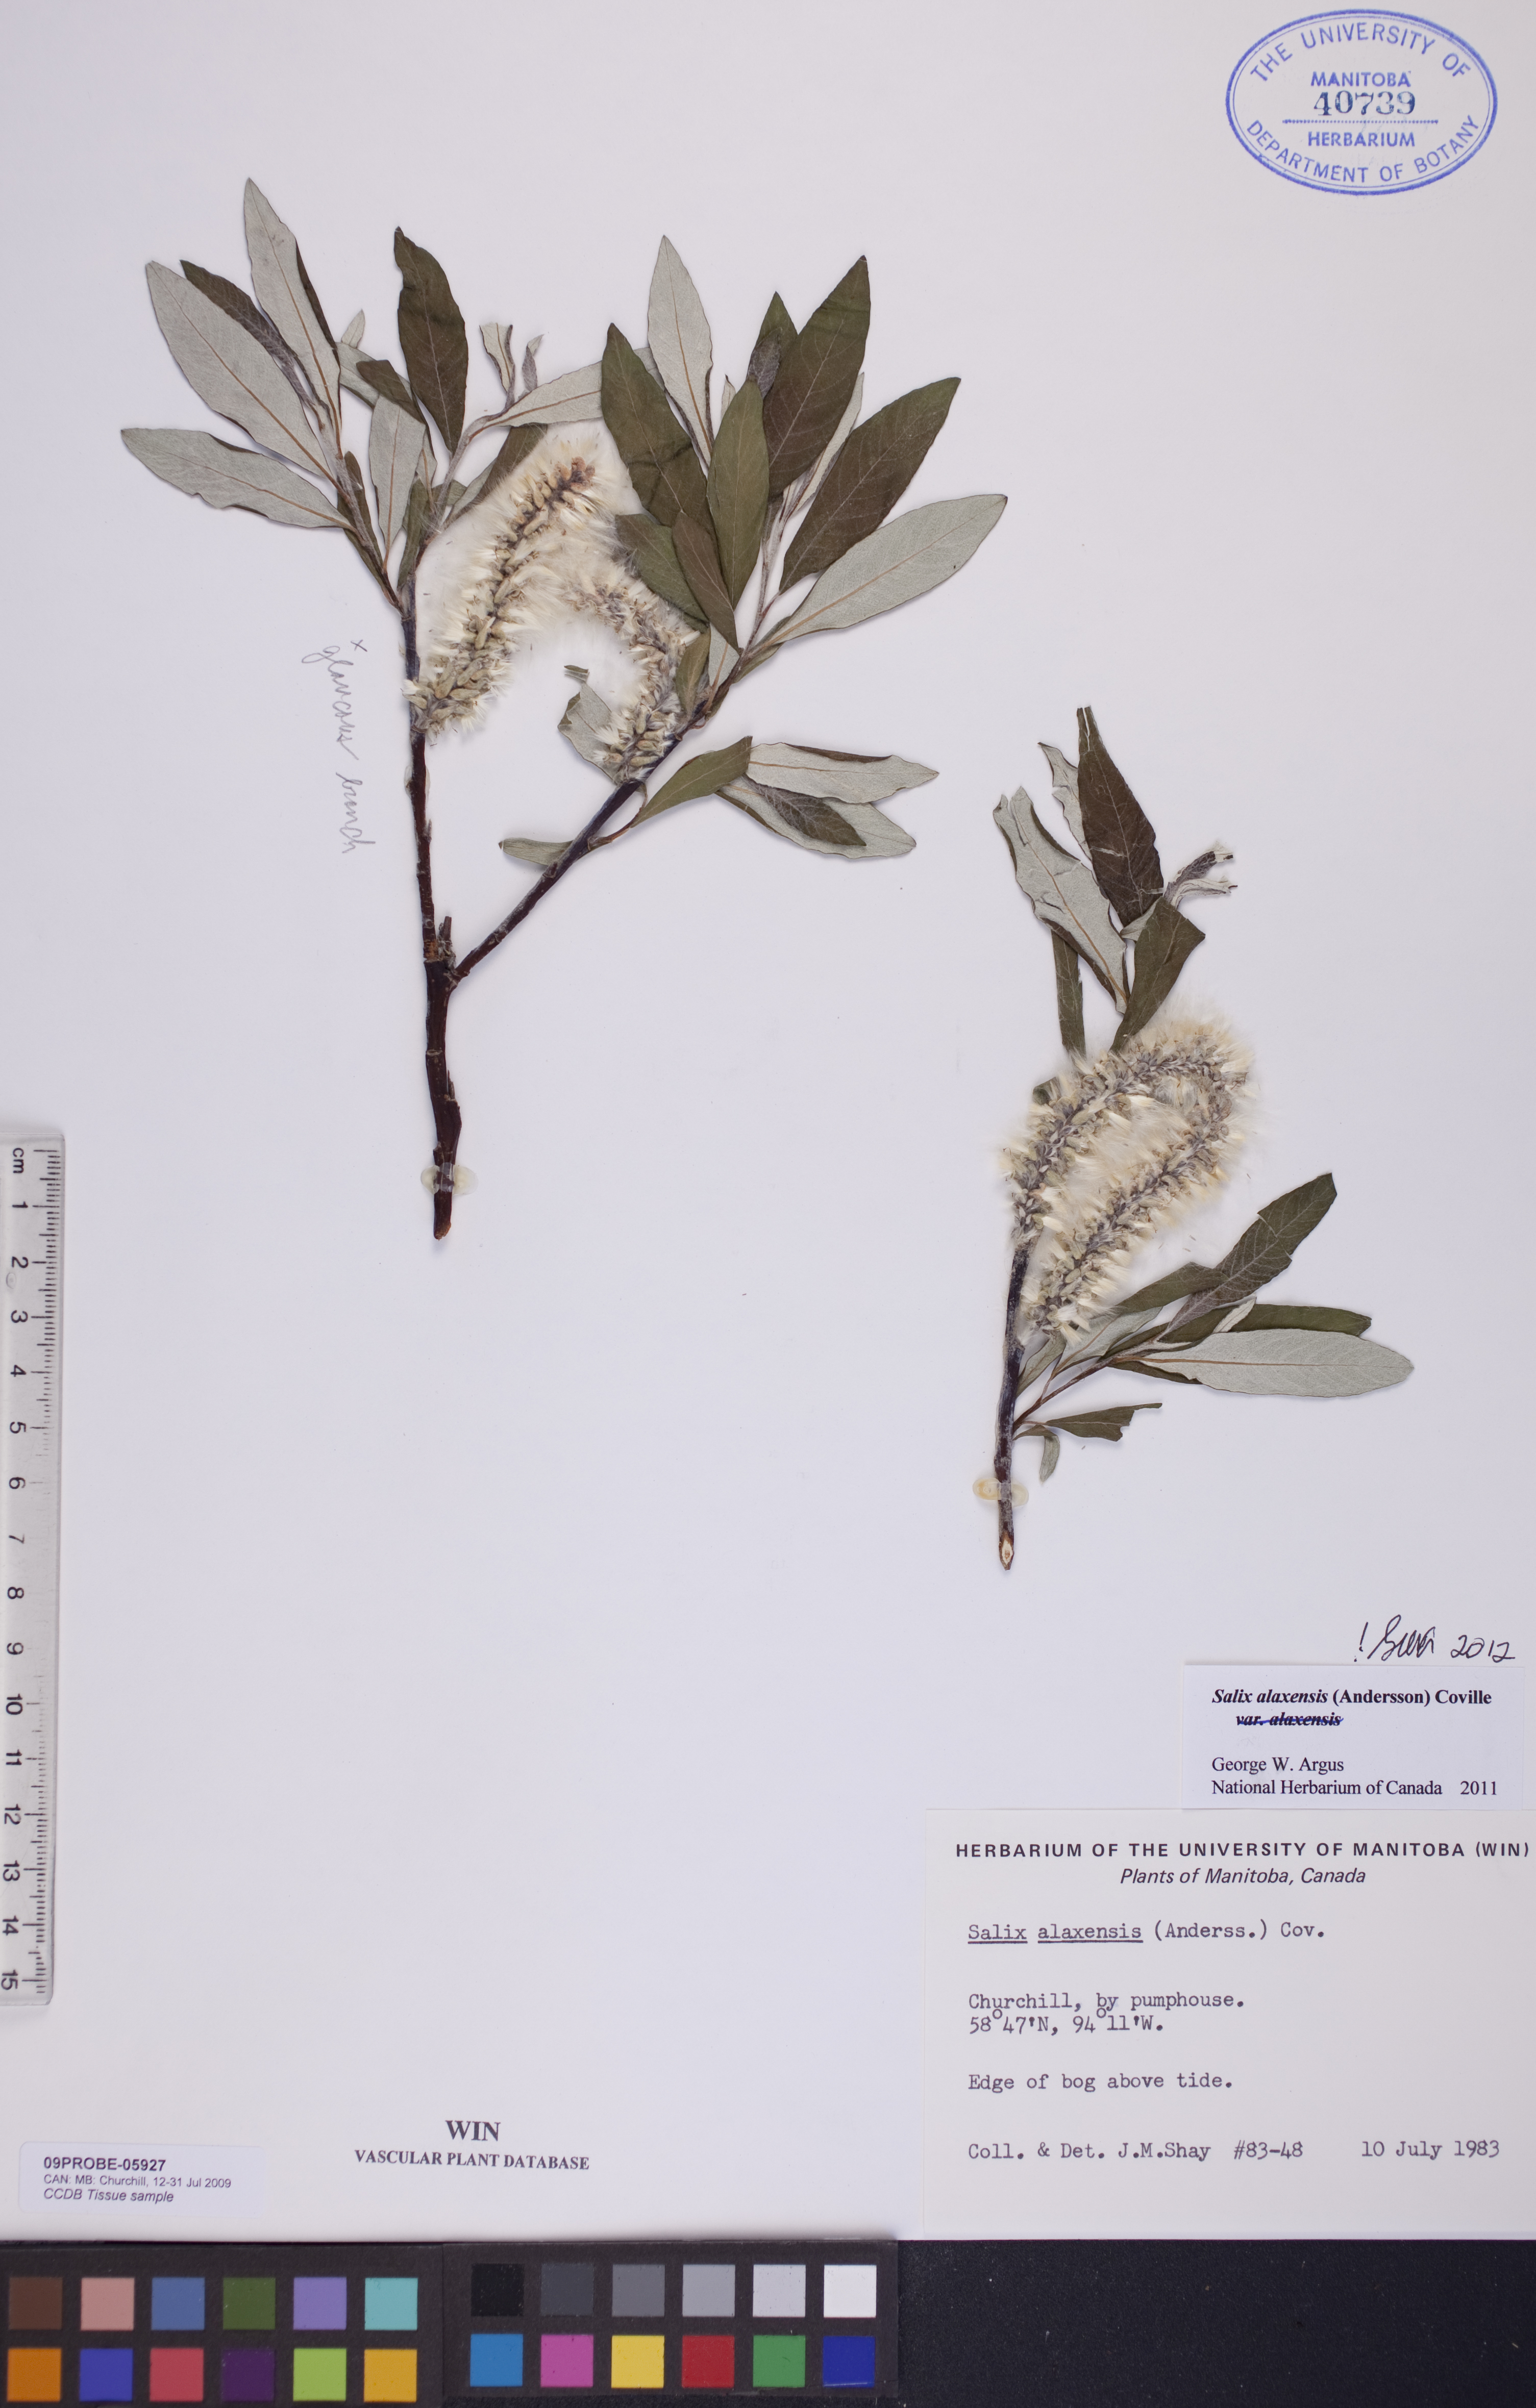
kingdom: Plantae
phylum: Tracheophyta
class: Magnoliopsida
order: Malpighiales
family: Salicaceae
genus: Salix
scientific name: Salix alaxensis
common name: Feltleaf willow
